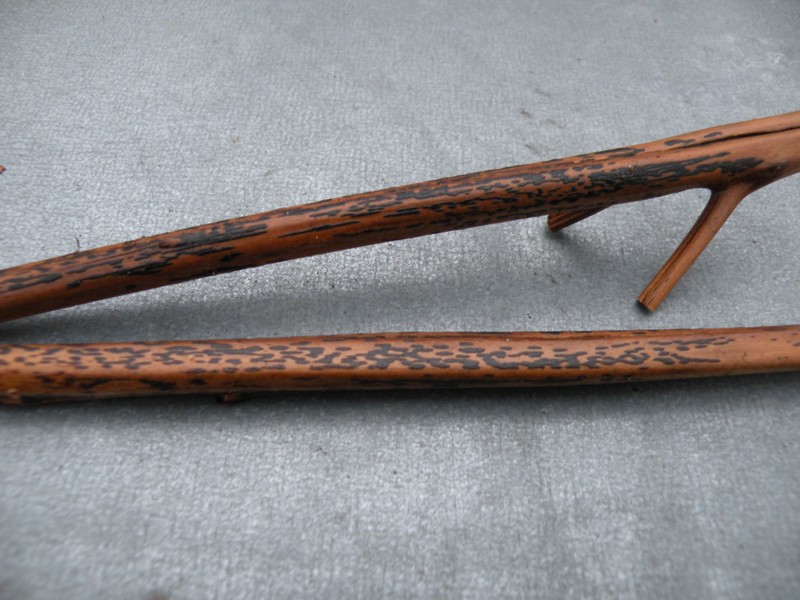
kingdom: Fungi
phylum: Ascomycota
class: Dothideomycetes
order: Pleosporales
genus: Rhopographus
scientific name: Rhopographus filicinus
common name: Bracken map
